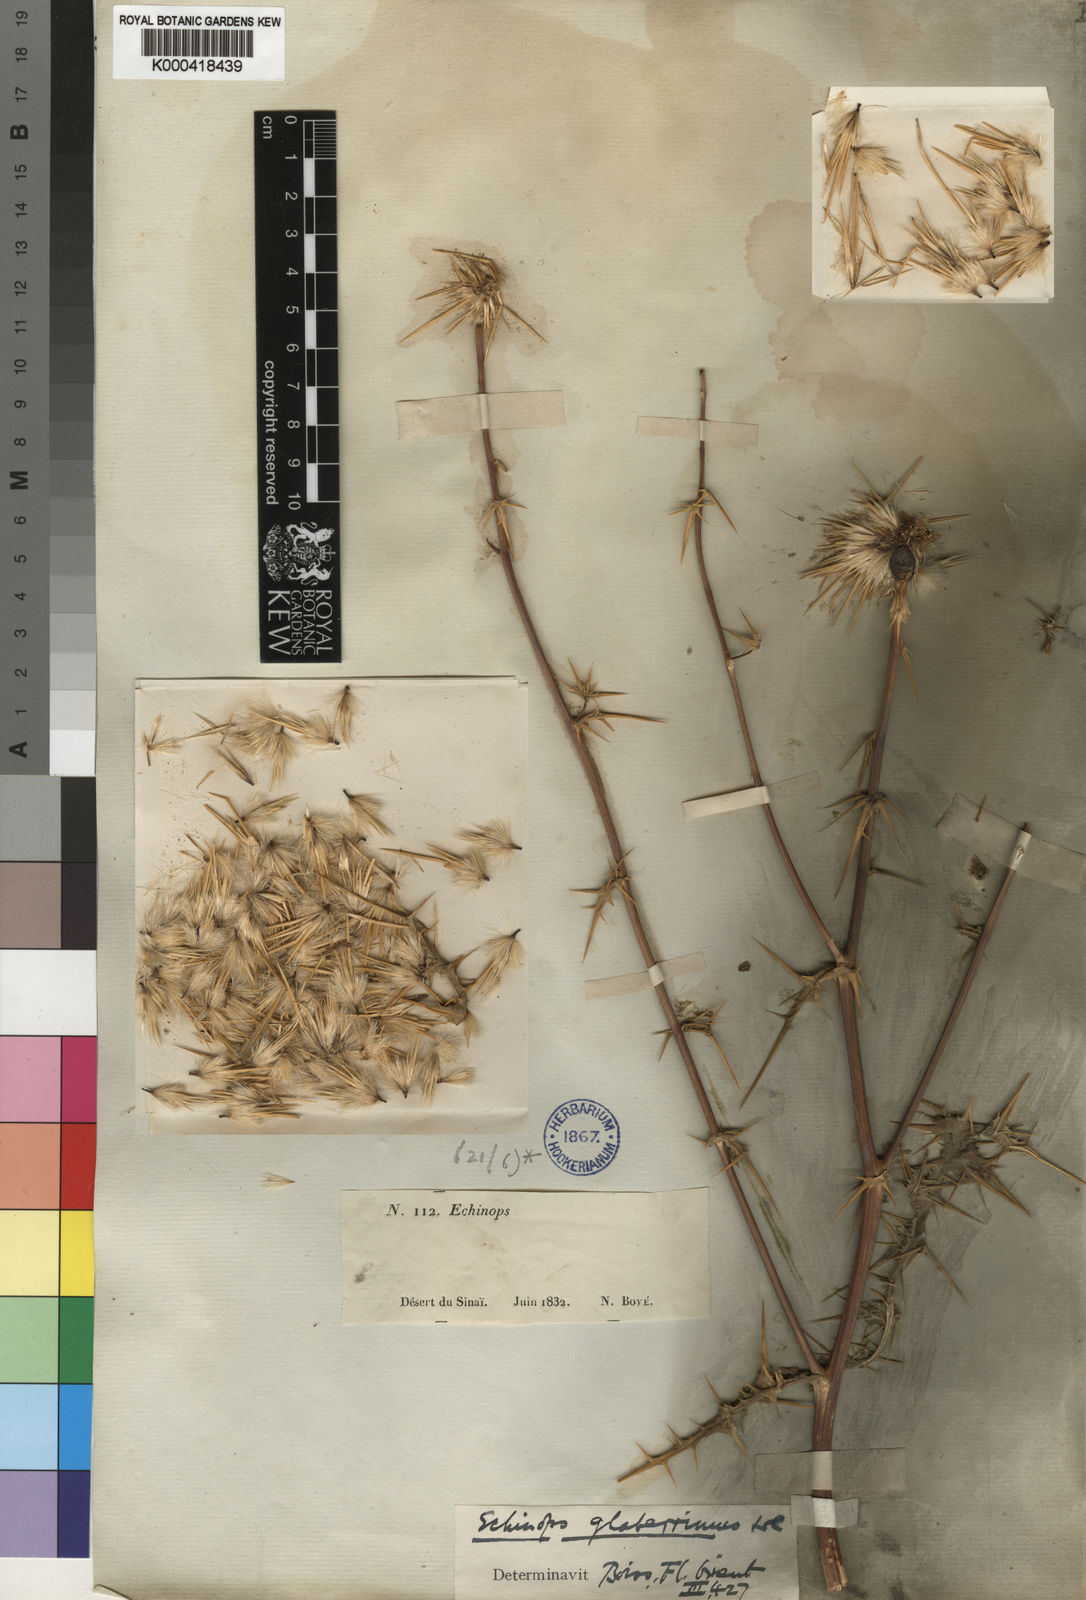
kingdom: Plantae
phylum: Tracheophyta
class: Magnoliopsida
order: Asterales
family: Asteraceae
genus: Echinops
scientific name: Echinops glaberrimus
